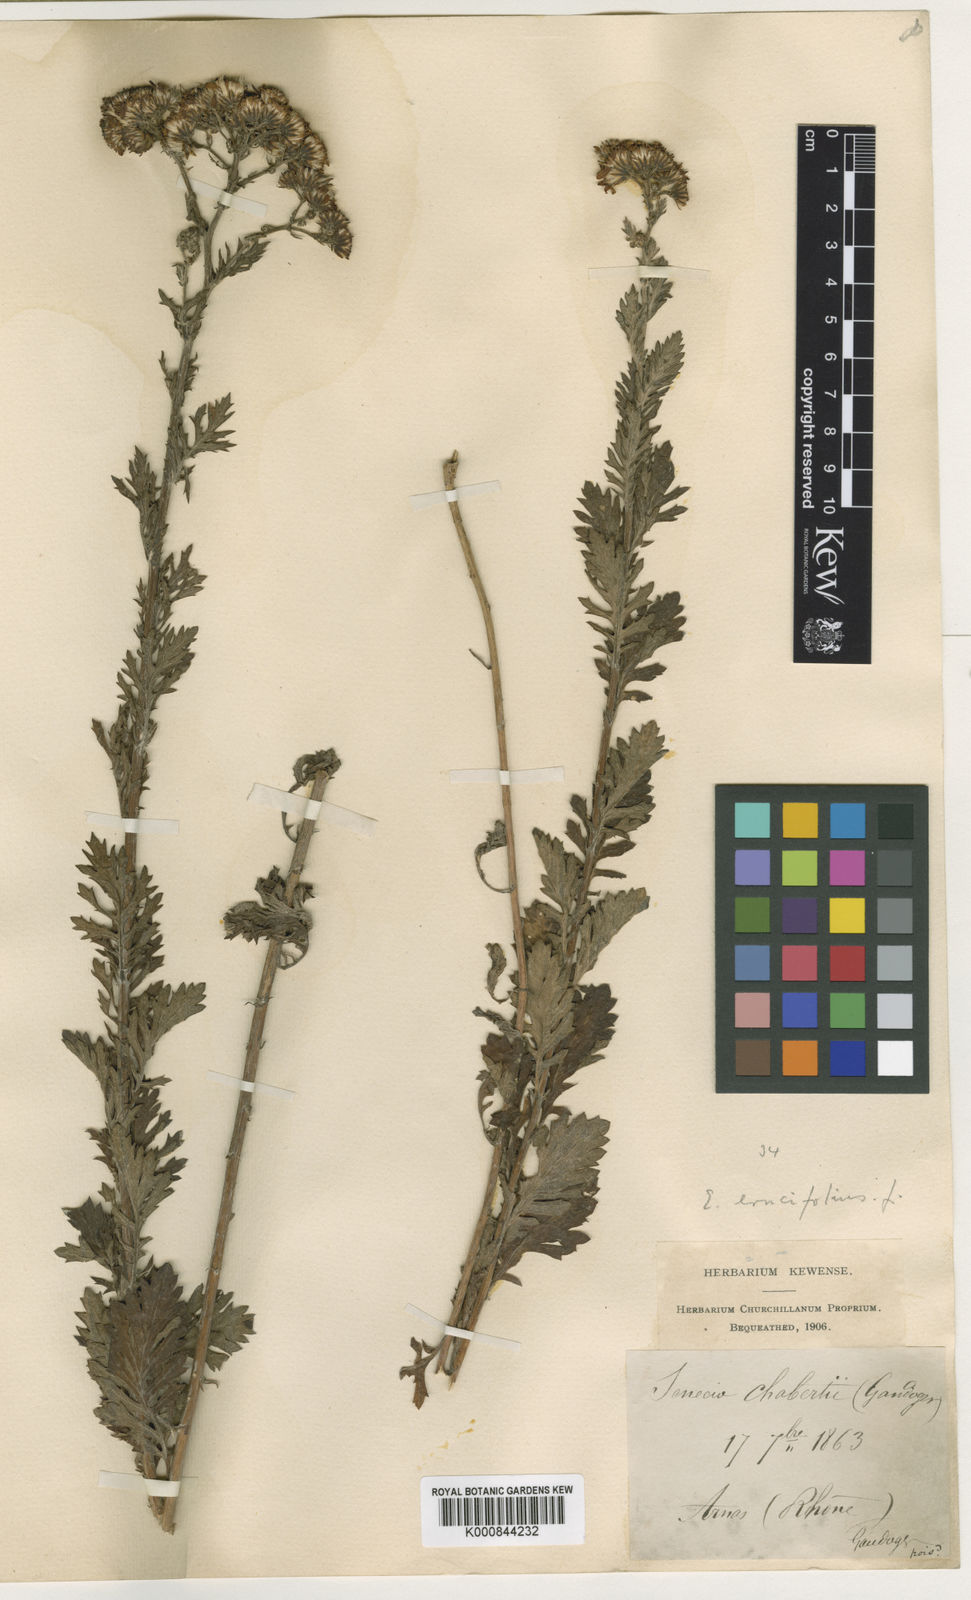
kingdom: Plantae
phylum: Tracheophyta
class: Magnoliopsida
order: Asterales
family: Asteraceae
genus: Jacobaea
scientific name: Jacobaea erucifolia
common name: Hoary ragwort
